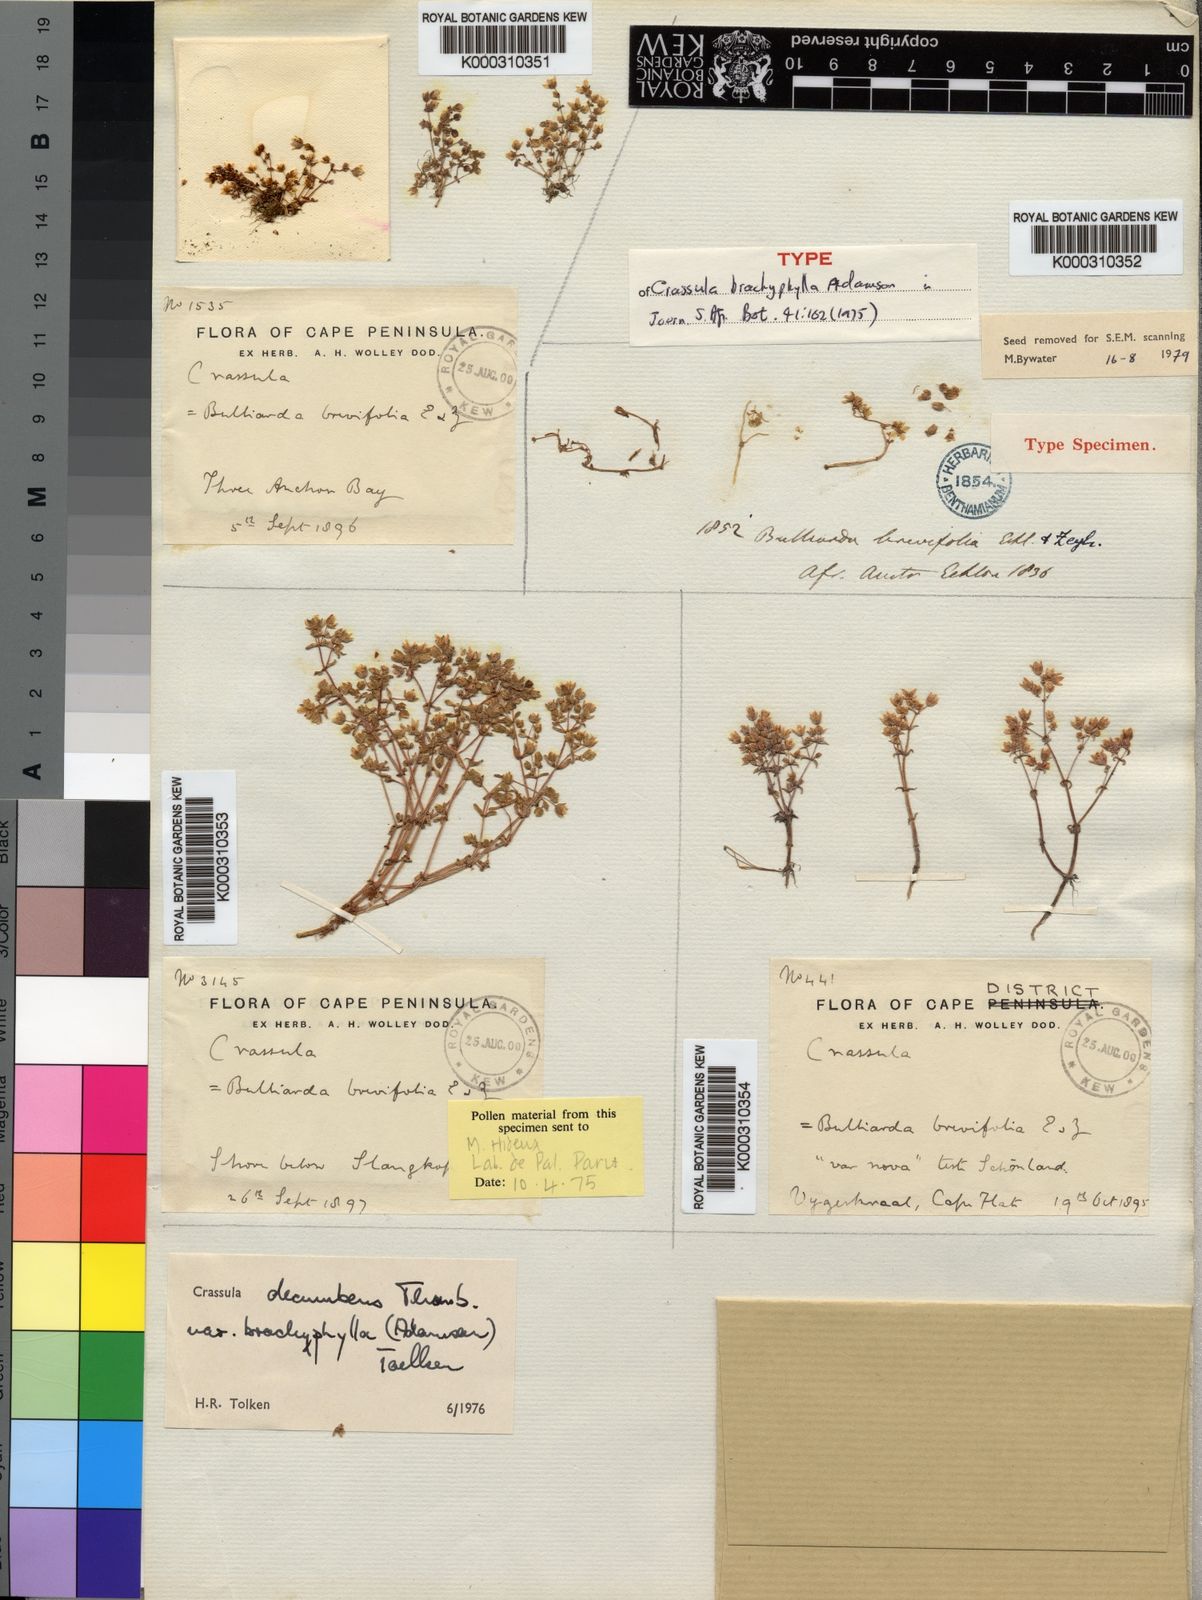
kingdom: Plantae
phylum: Tracheophyta
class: Magnoliopsida
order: Saxifragales
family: Crassulaceae
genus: Crassula
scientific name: Crassula decumbens
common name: Scilly pigmyweed
